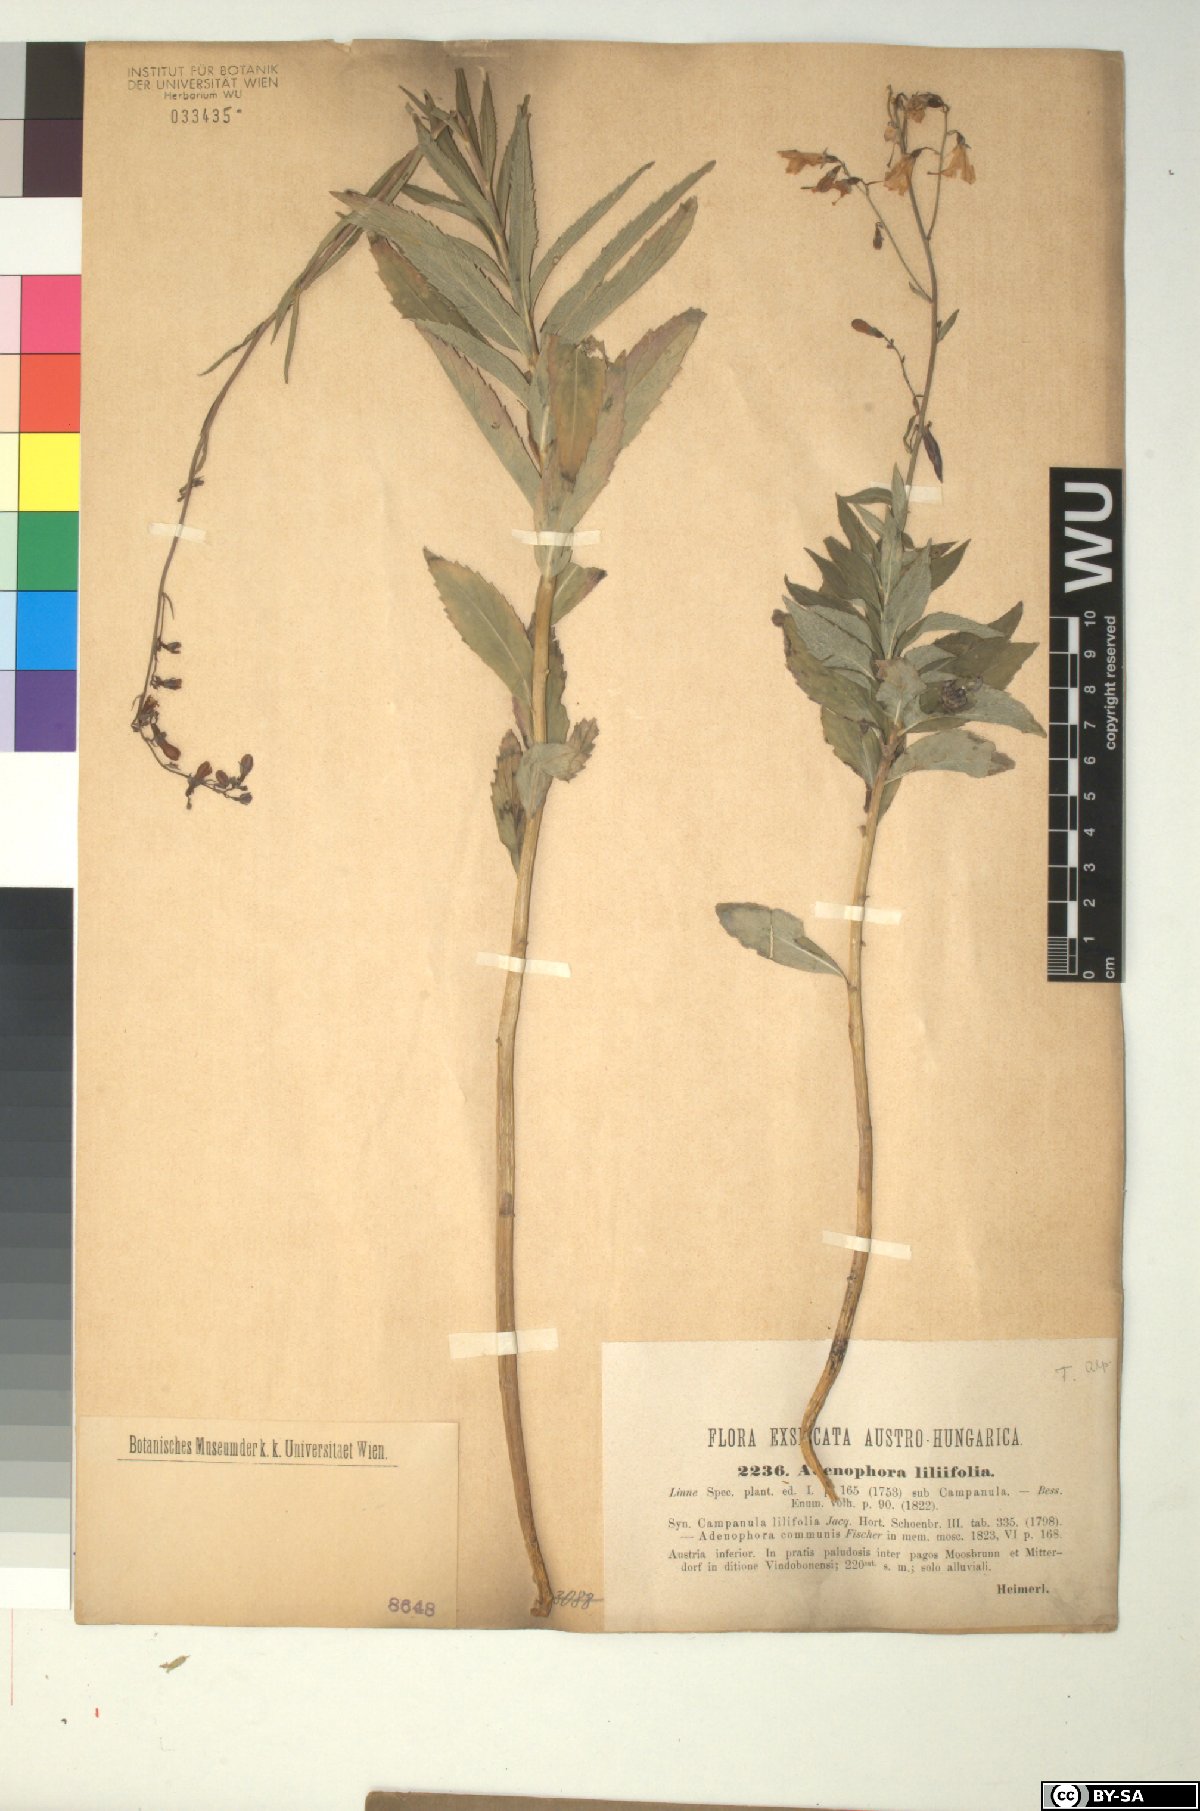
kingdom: Plantae
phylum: Tracheophyta
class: Magnoliopsida
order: Asterales
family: Campanulaceae
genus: Adenophora
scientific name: Adenophora liliifolia
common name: Lilyleaf ladybells
